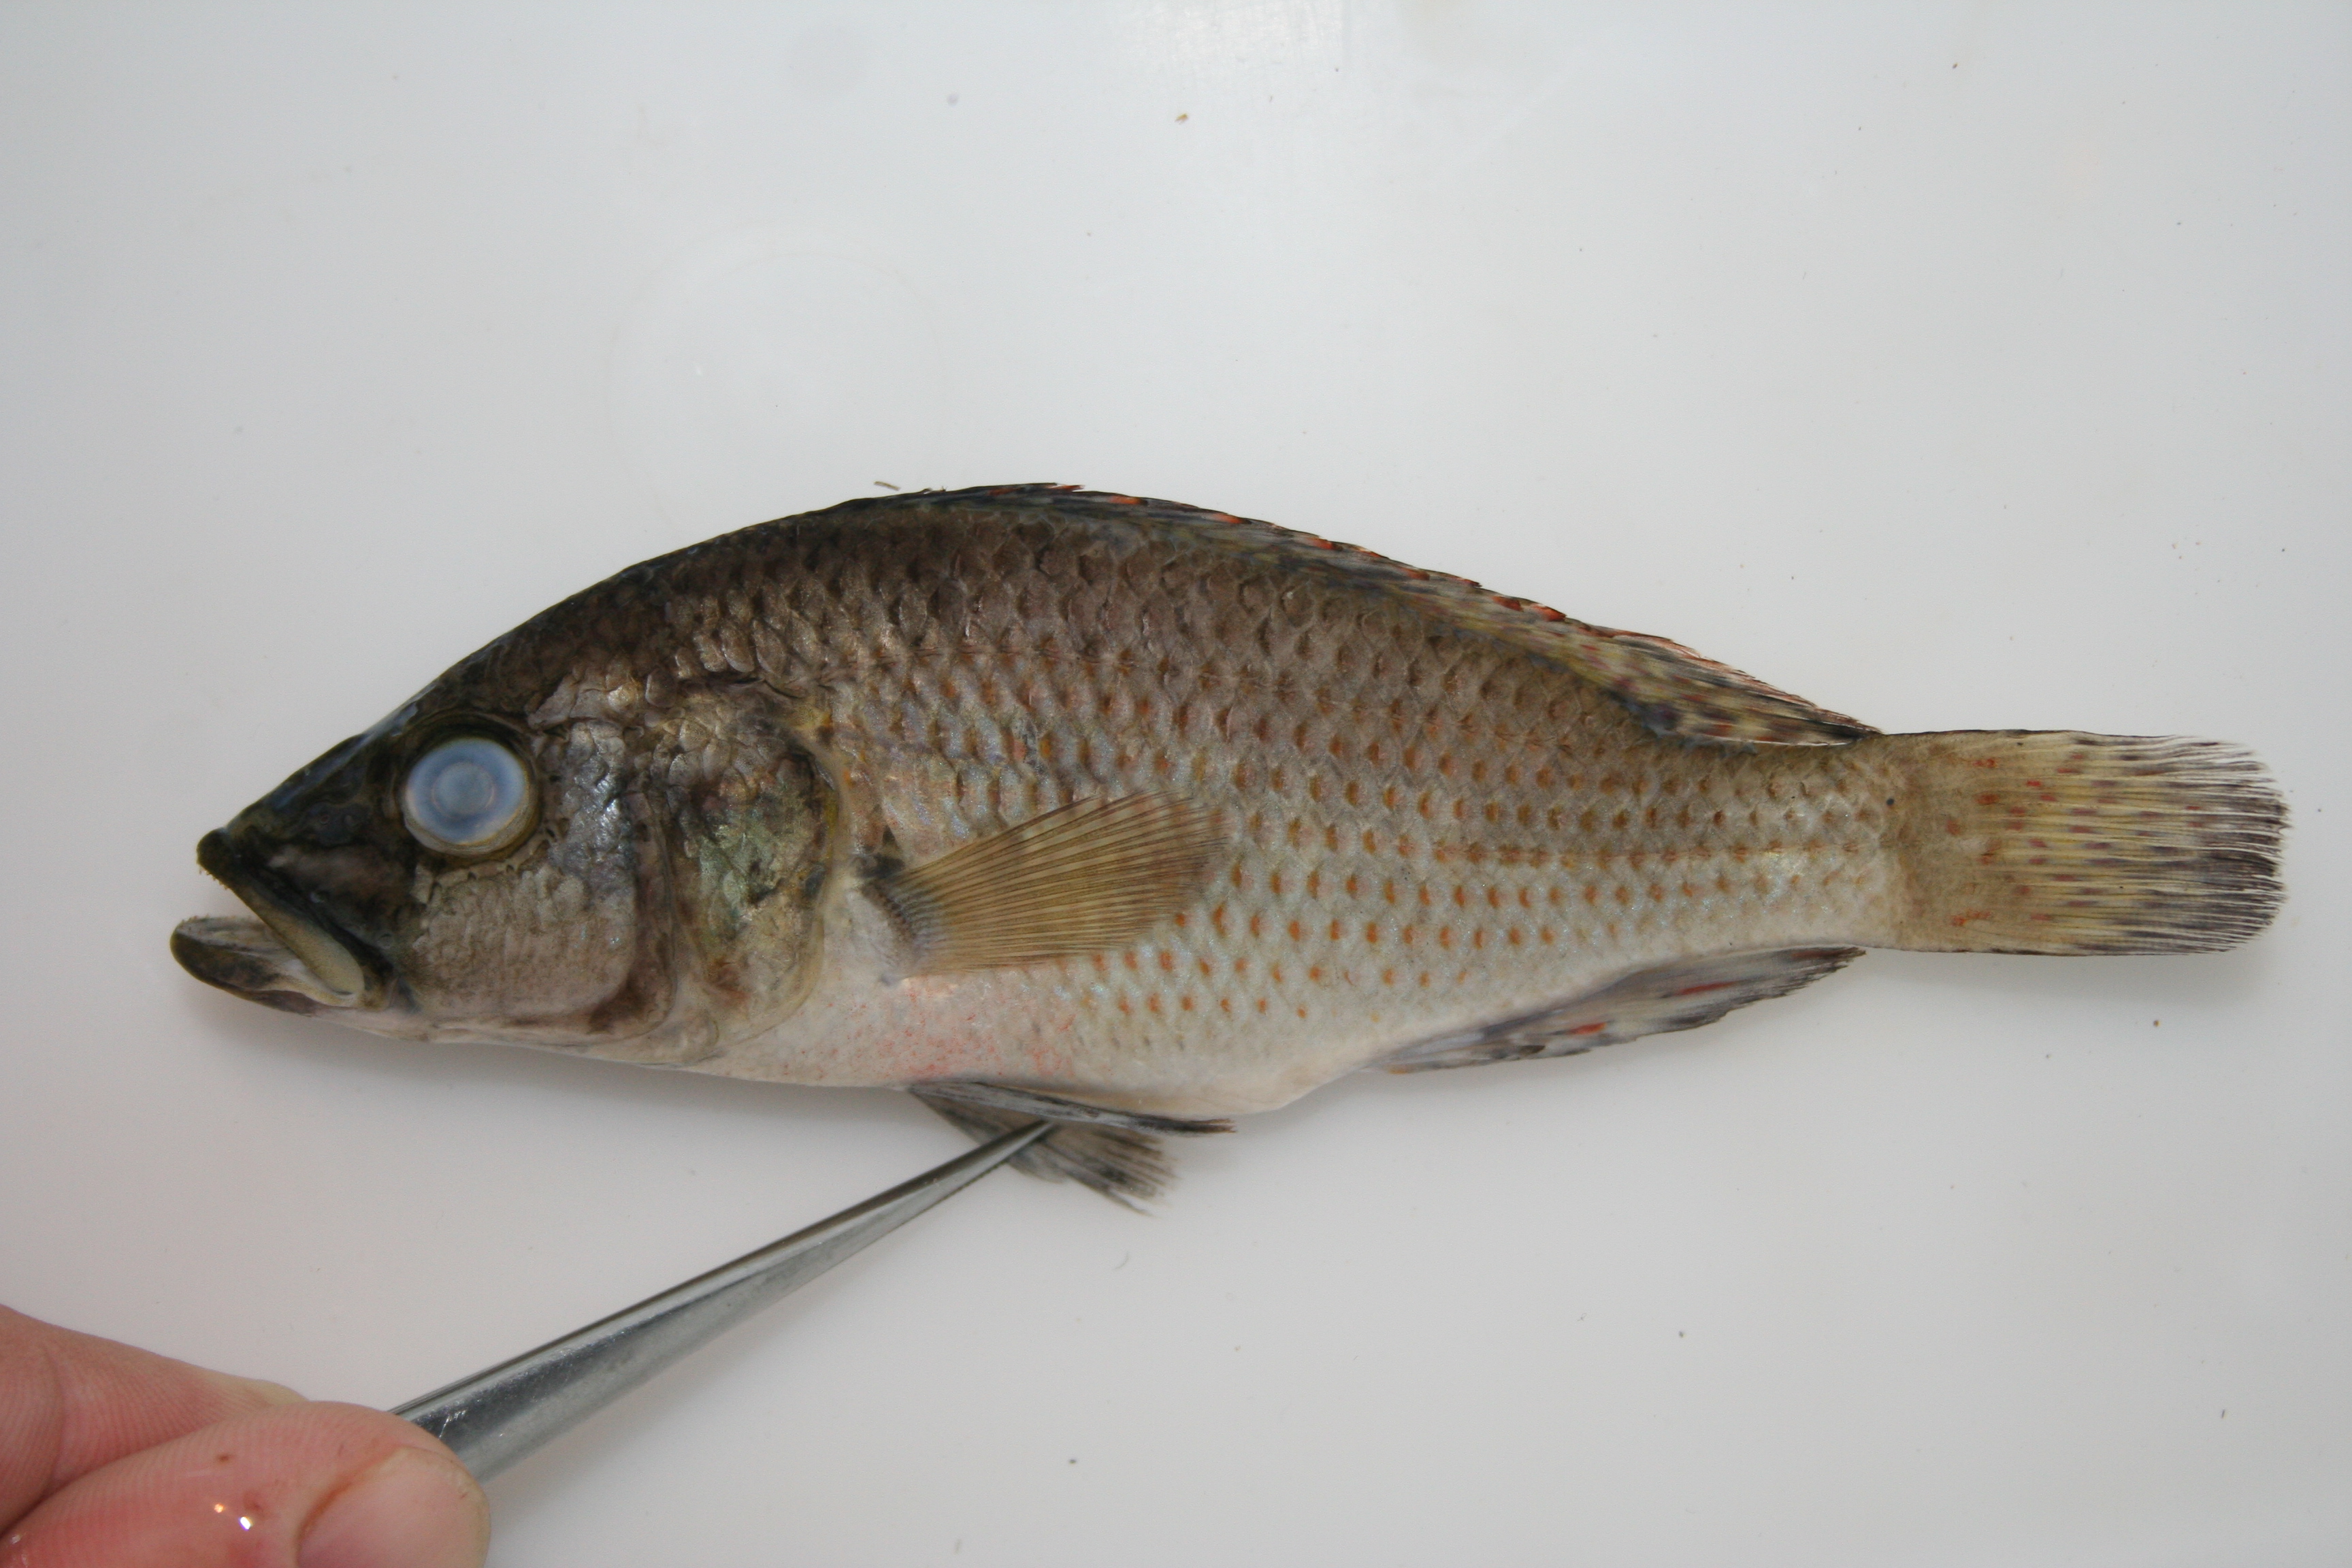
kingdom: Animalia
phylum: Chordata
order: Perciformes
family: Cichlidae
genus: Serranochromis
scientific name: Serranochromis
